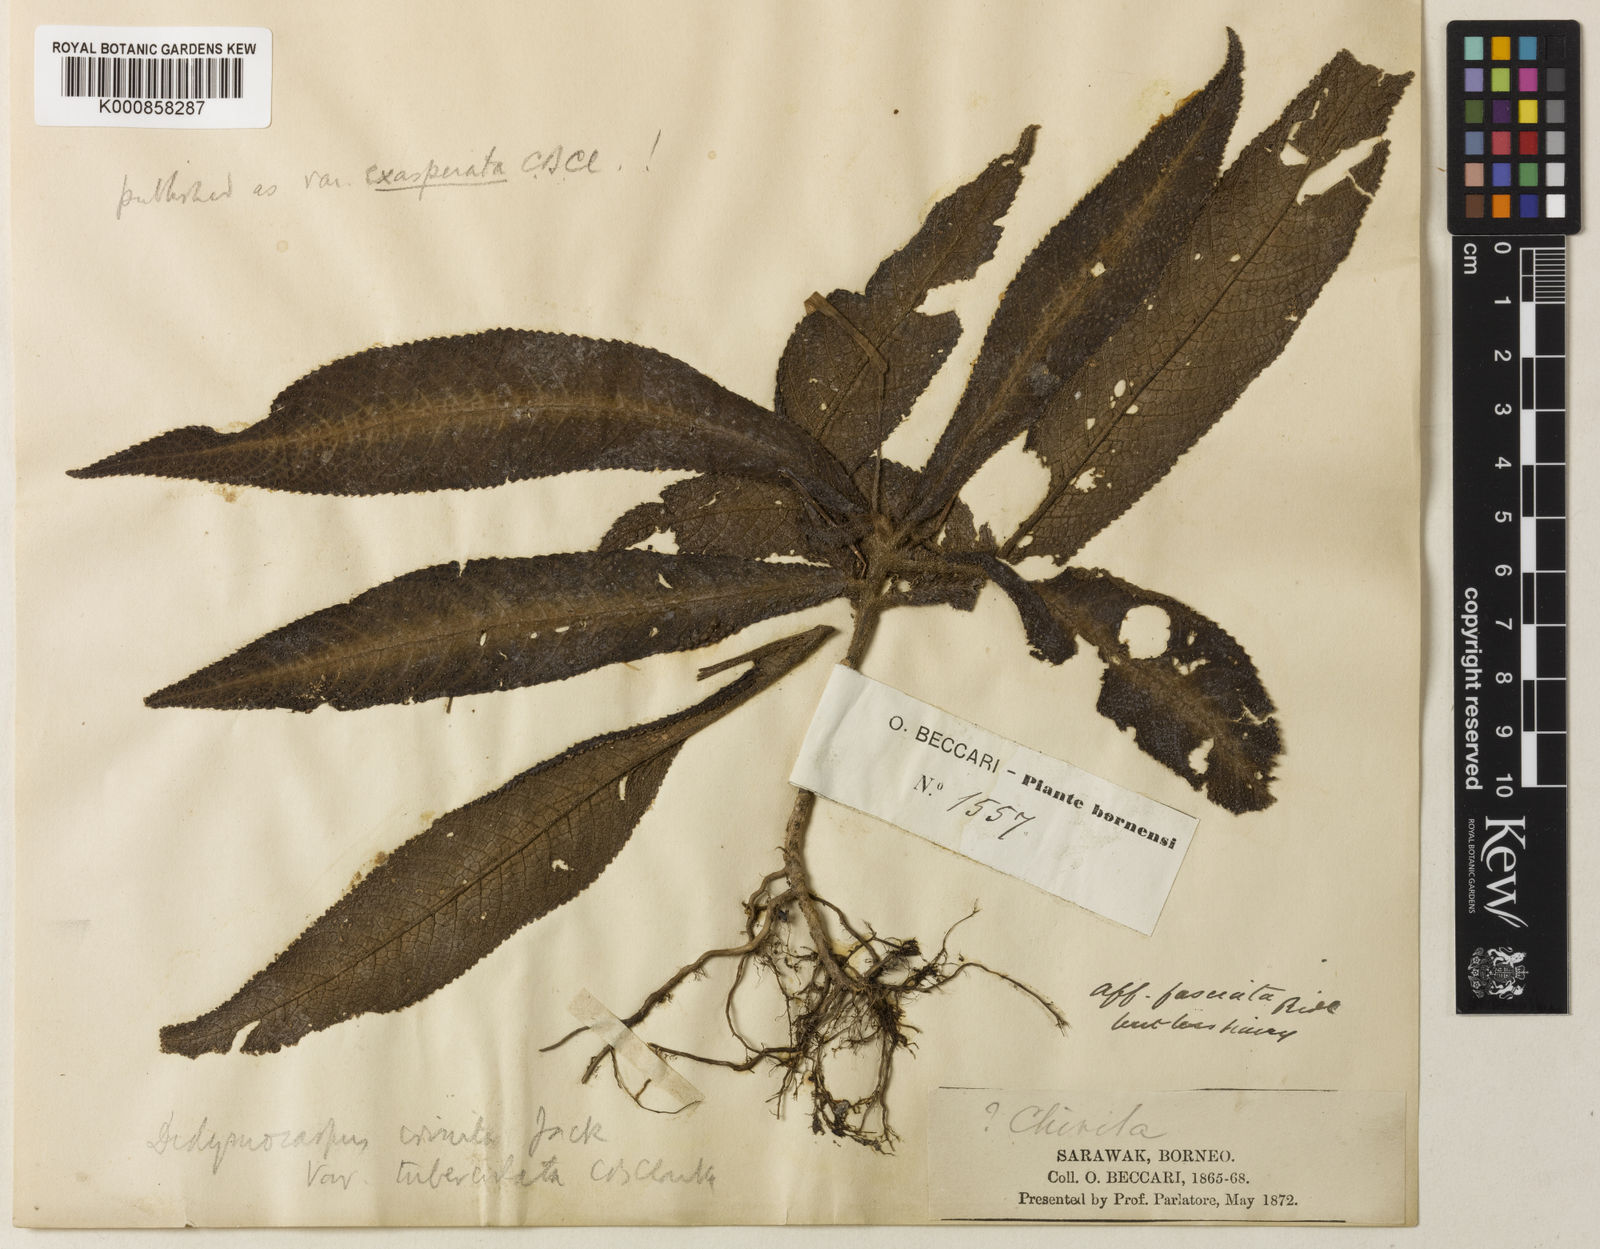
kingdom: Plantae
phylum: Tracheophyta
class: Magnoliopsida
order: Lamiales
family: Gesneriaceae
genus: Codonoboea
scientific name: Codonoboea crinita
